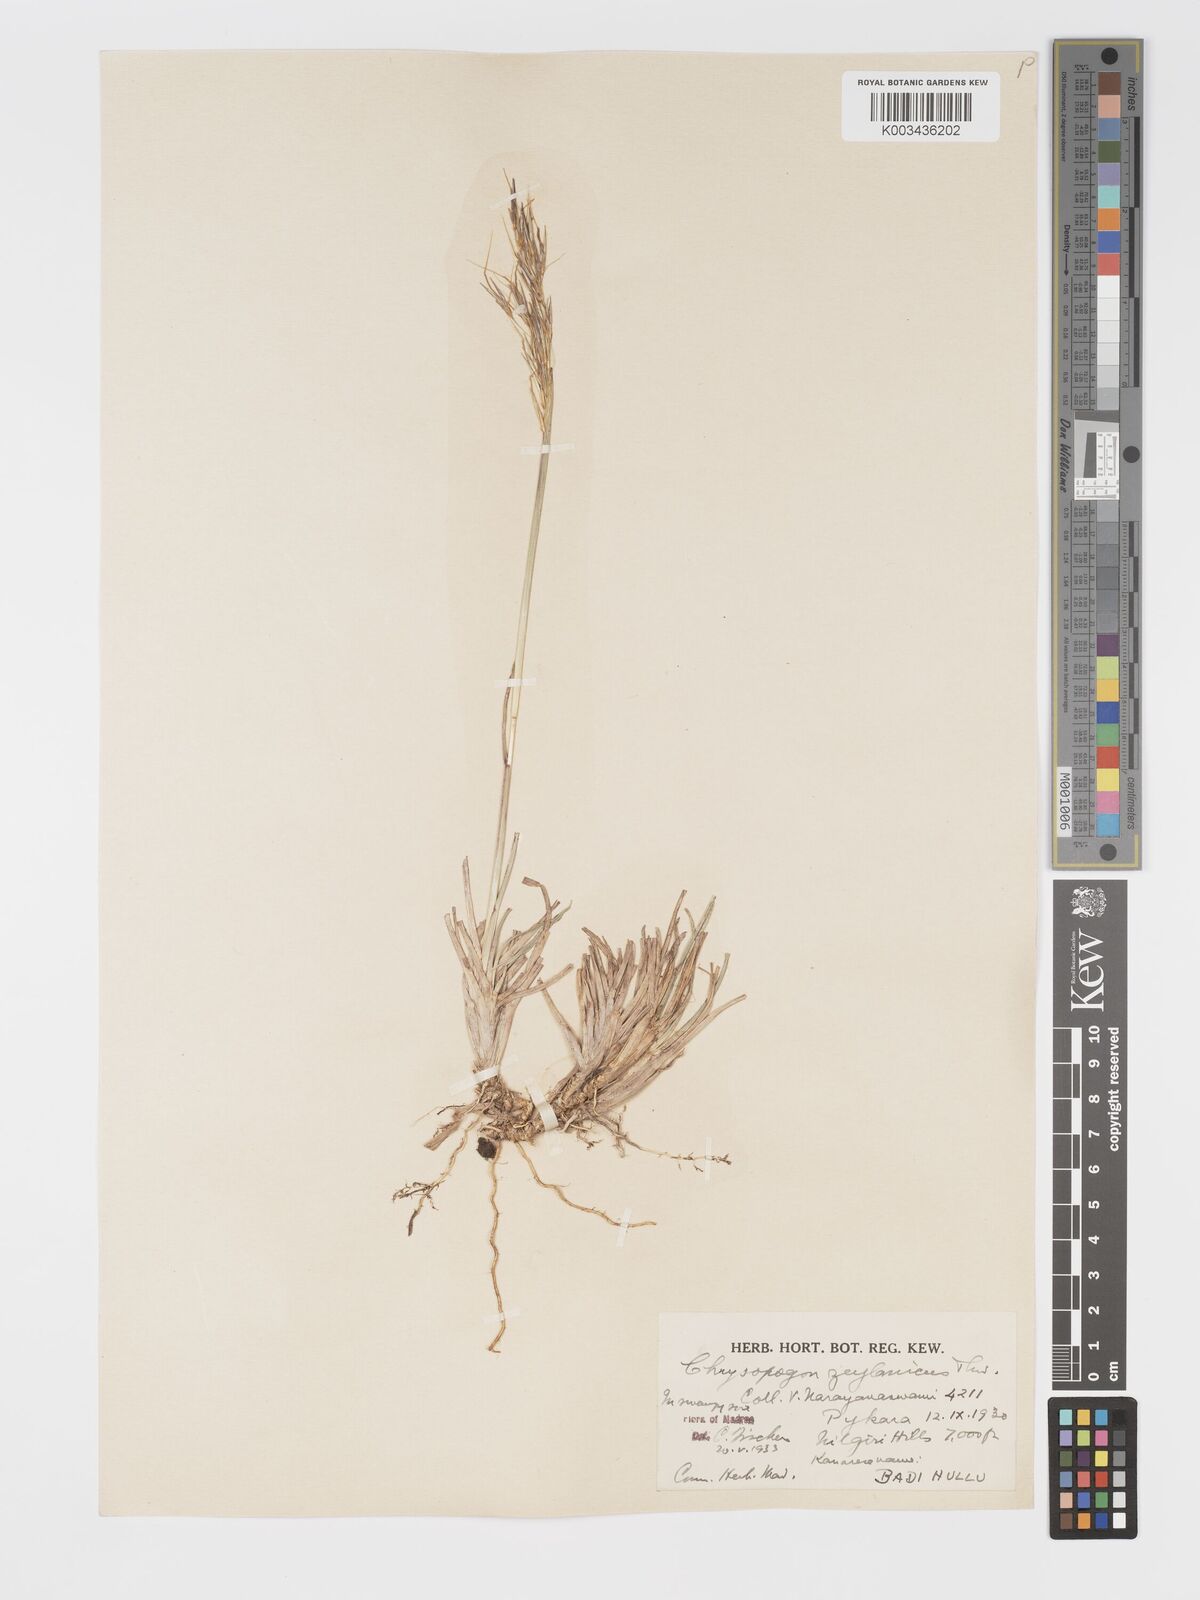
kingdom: Plantae
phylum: Tracheophyta
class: Liliopsida
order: Poales
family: Poaceae
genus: Chrysopogon
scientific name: Chrysopogon nodulibarbis
